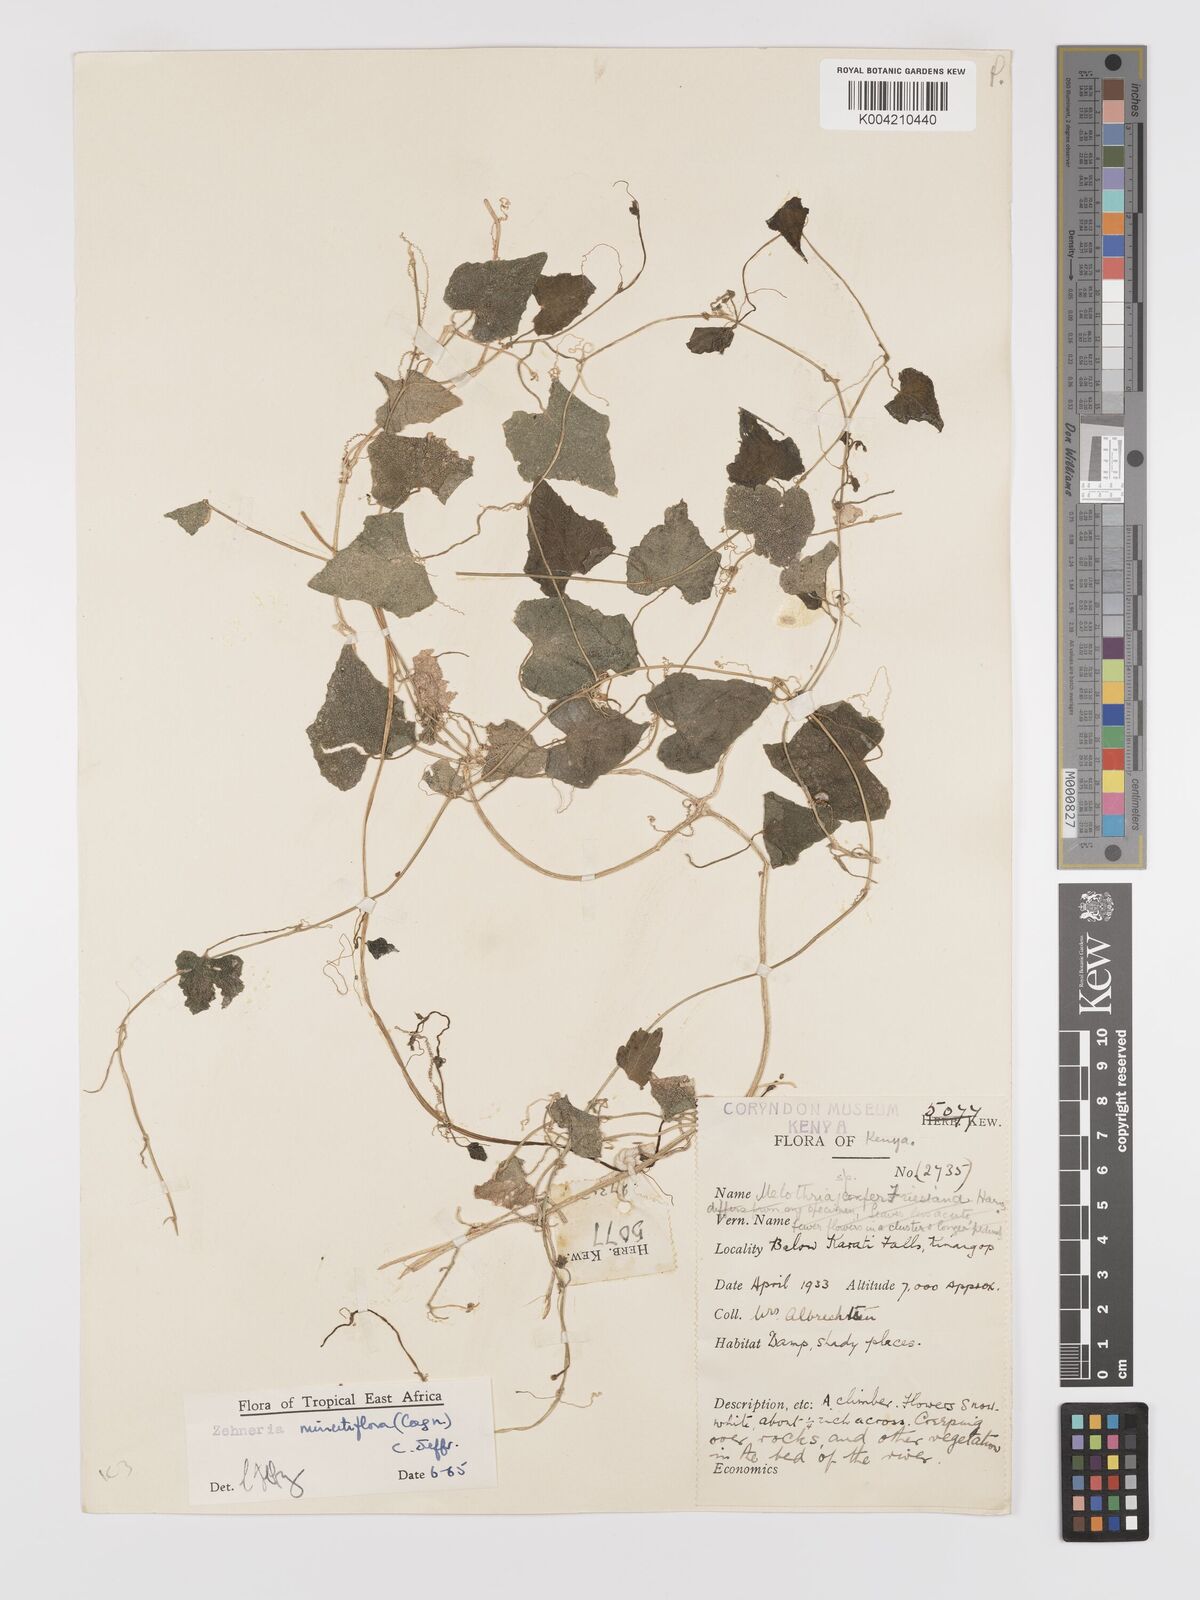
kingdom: Plantae
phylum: Tracheophyta
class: Magnoliopsida
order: Cucurbitales
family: Cucurbitaceae
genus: Zehneria
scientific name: Zehneria minutiflora
